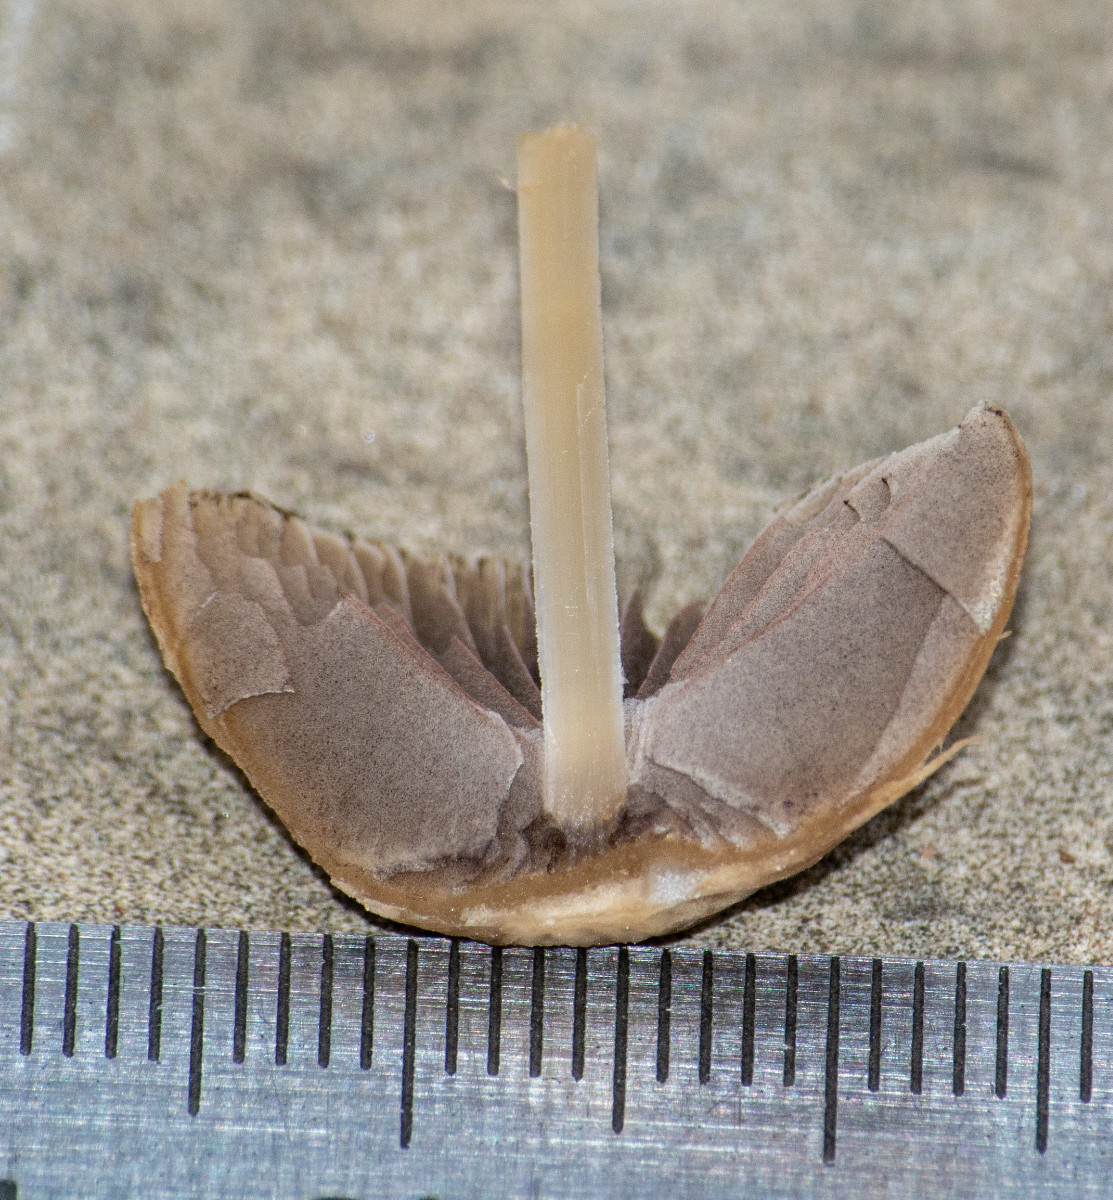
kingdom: Fungi
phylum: Basidiomycota
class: Agaricomycetes
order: Agaricales
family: Psathyrellaceae
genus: Psathyrella
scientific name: Psathyrella
